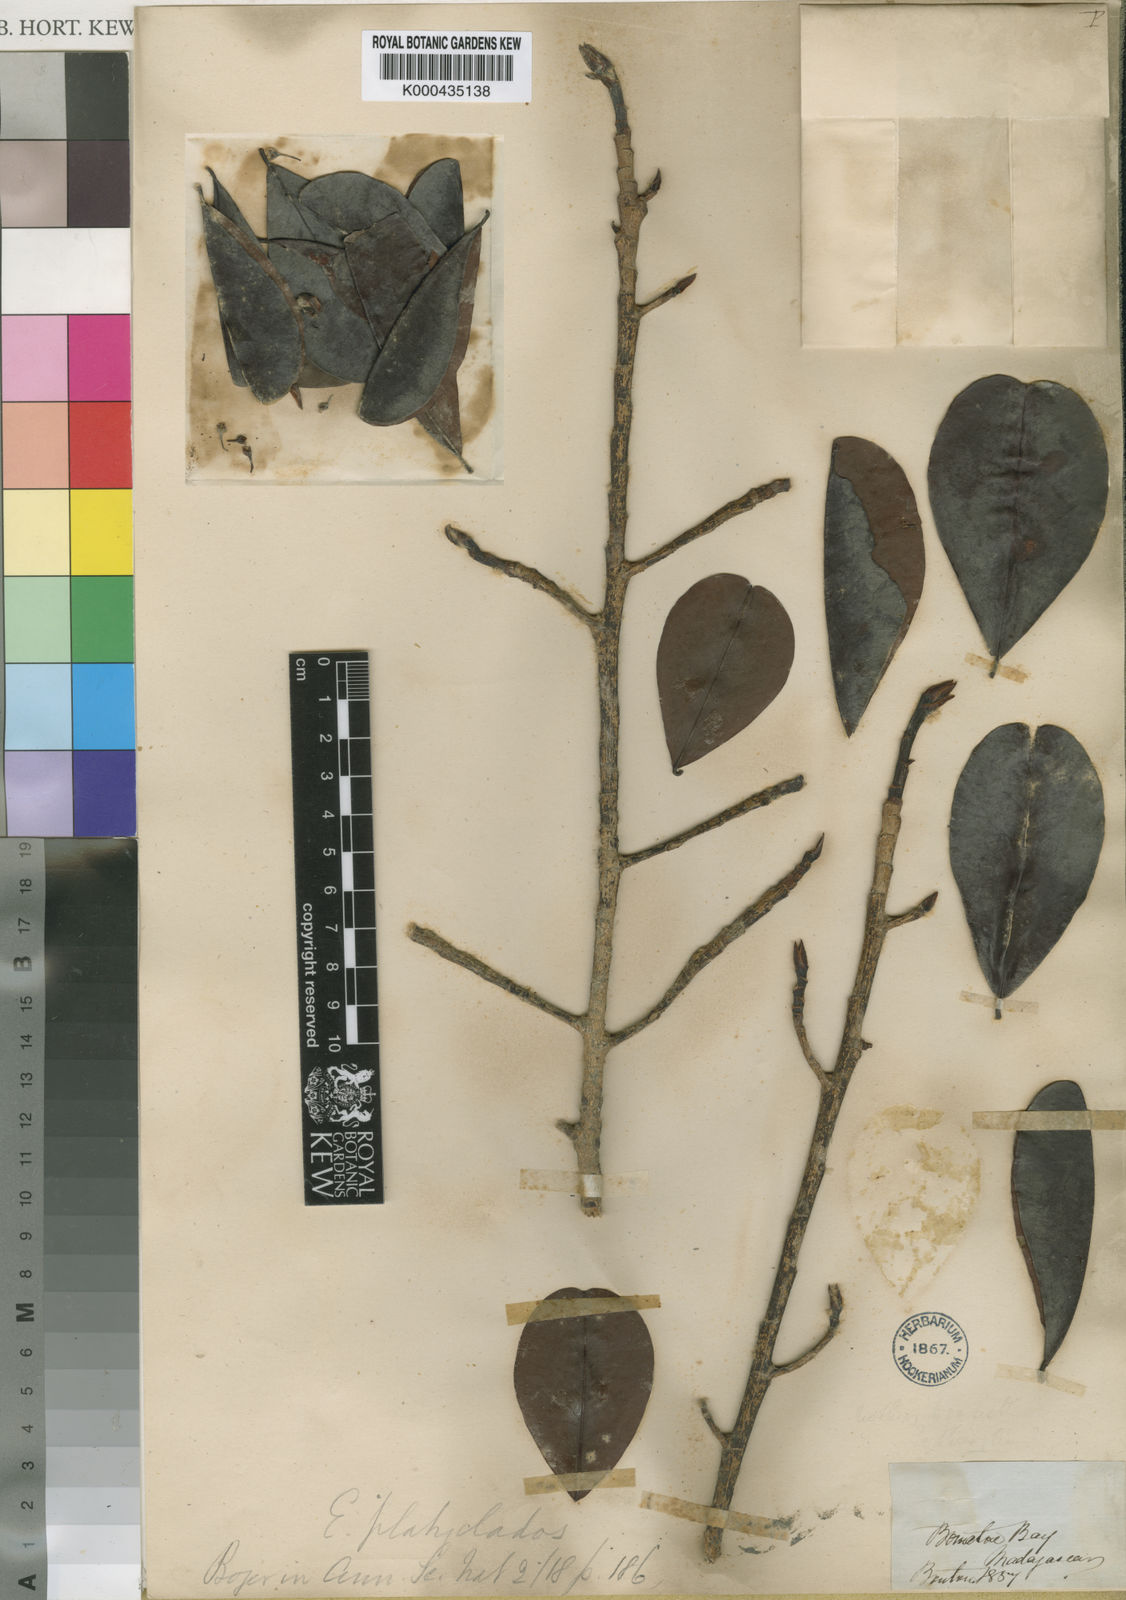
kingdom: Plantae
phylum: Tracheophyta
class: Magnoliopsida
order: Malpighiales
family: Erythroxylaceae
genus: Erythroxylum
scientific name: Erythroxylum platyclados
